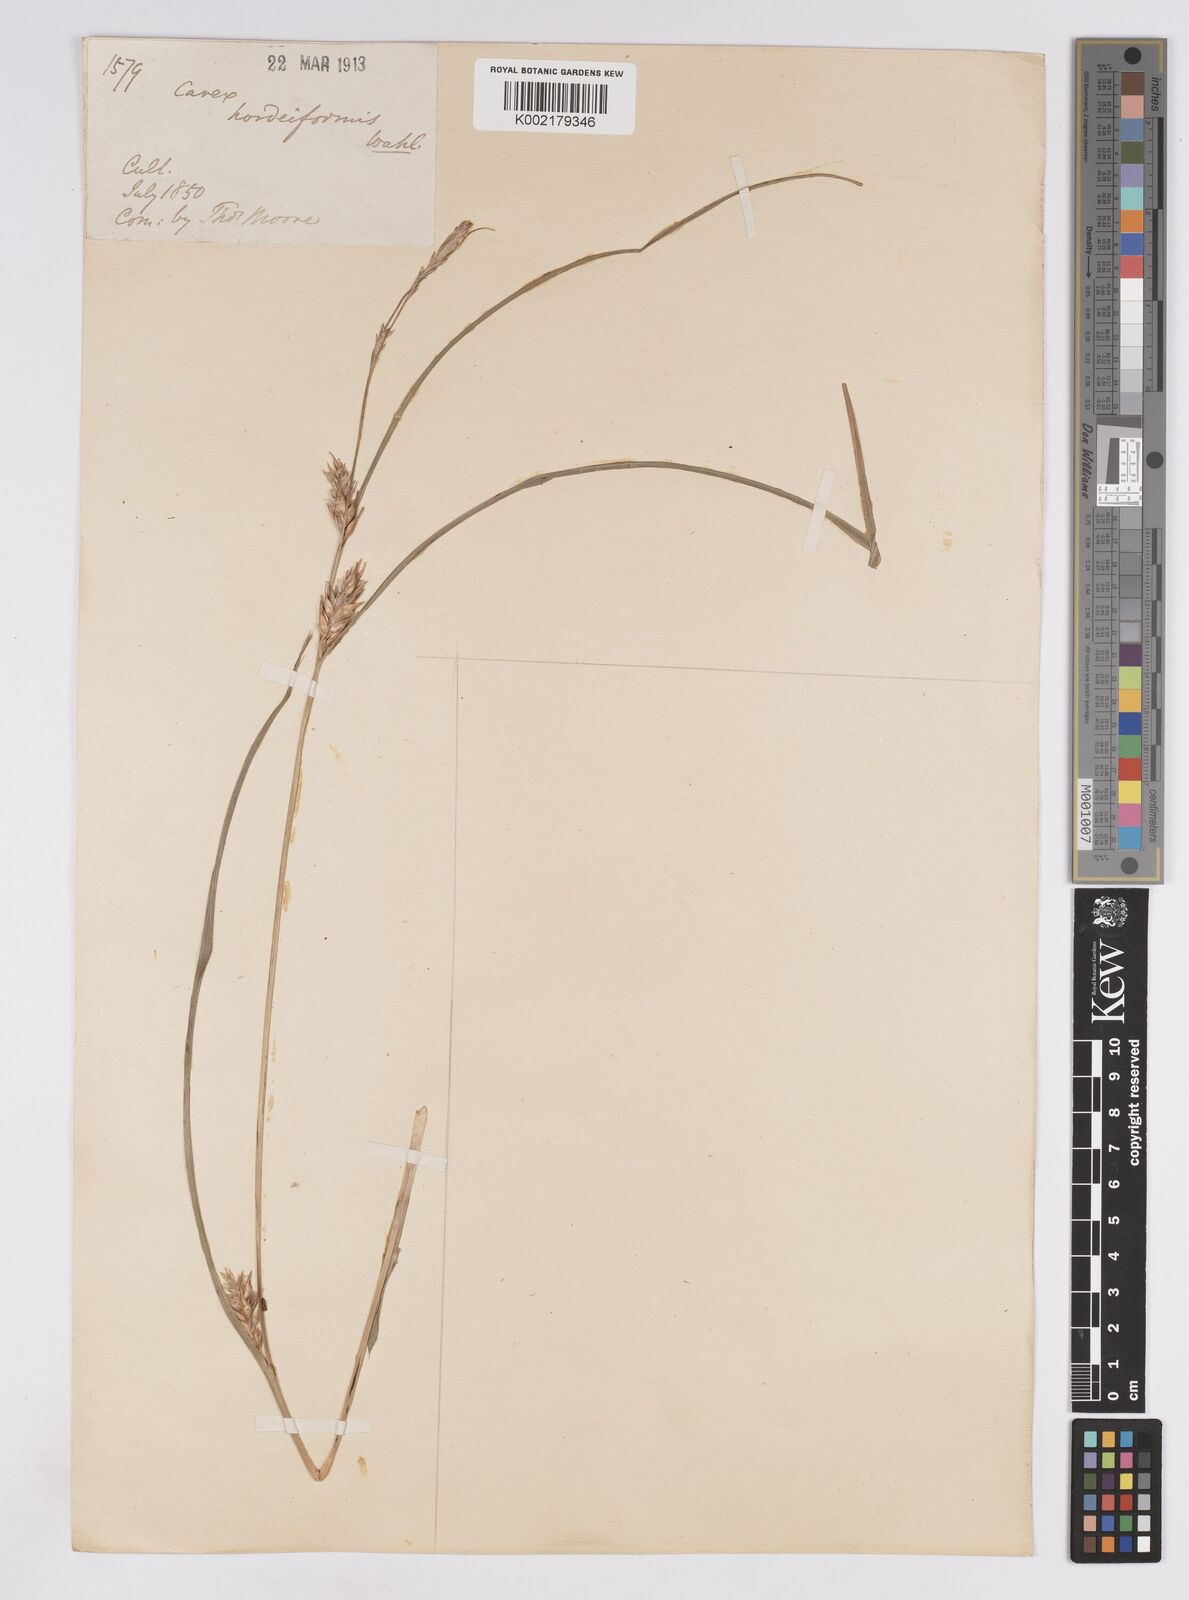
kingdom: Plantae
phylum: Tracheophyta
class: Liliopsida
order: Poales
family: Cyperaceae
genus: Carex
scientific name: Carex hordeistichos
